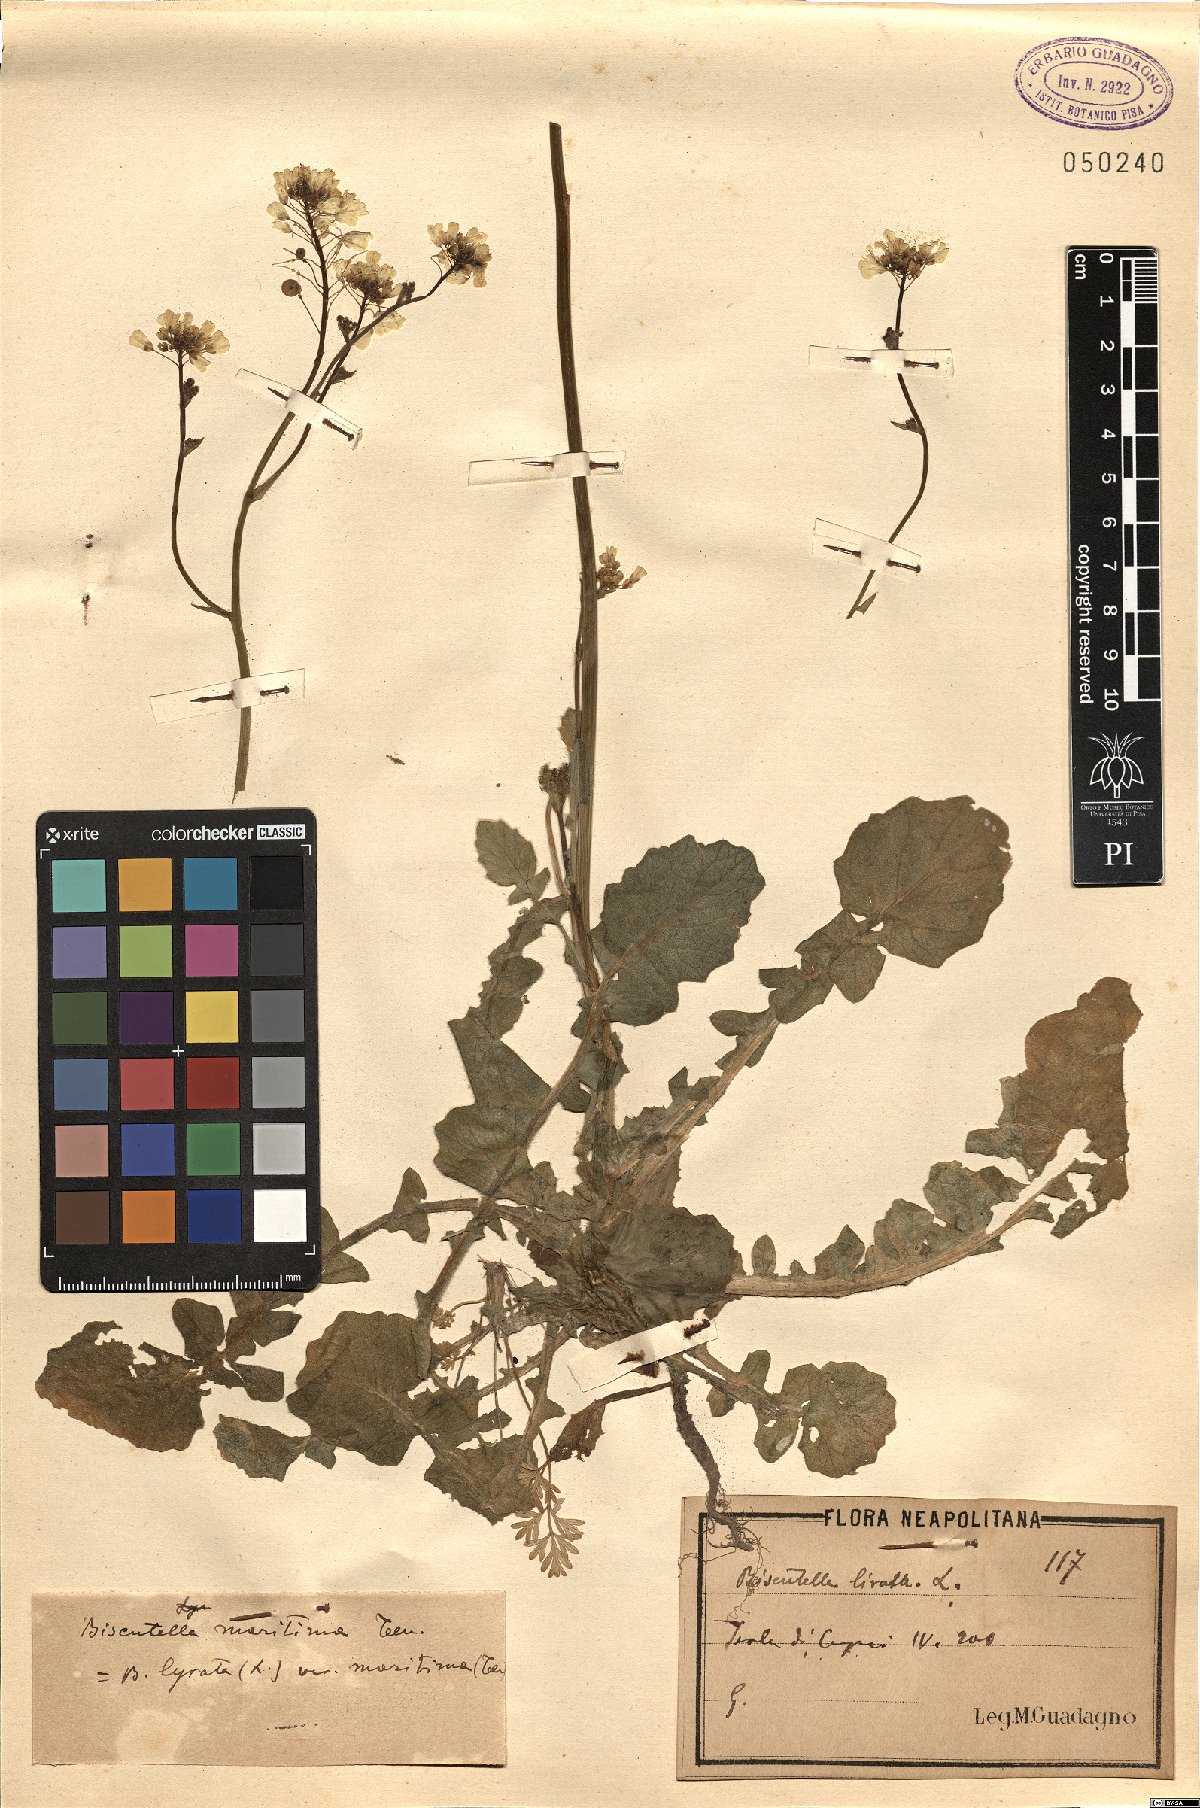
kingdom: Plantae
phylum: Tracheophyta
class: Magnoliopsida
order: Brassicales
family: Brassicaceae
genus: Biscutella
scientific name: Biscutella maritima
